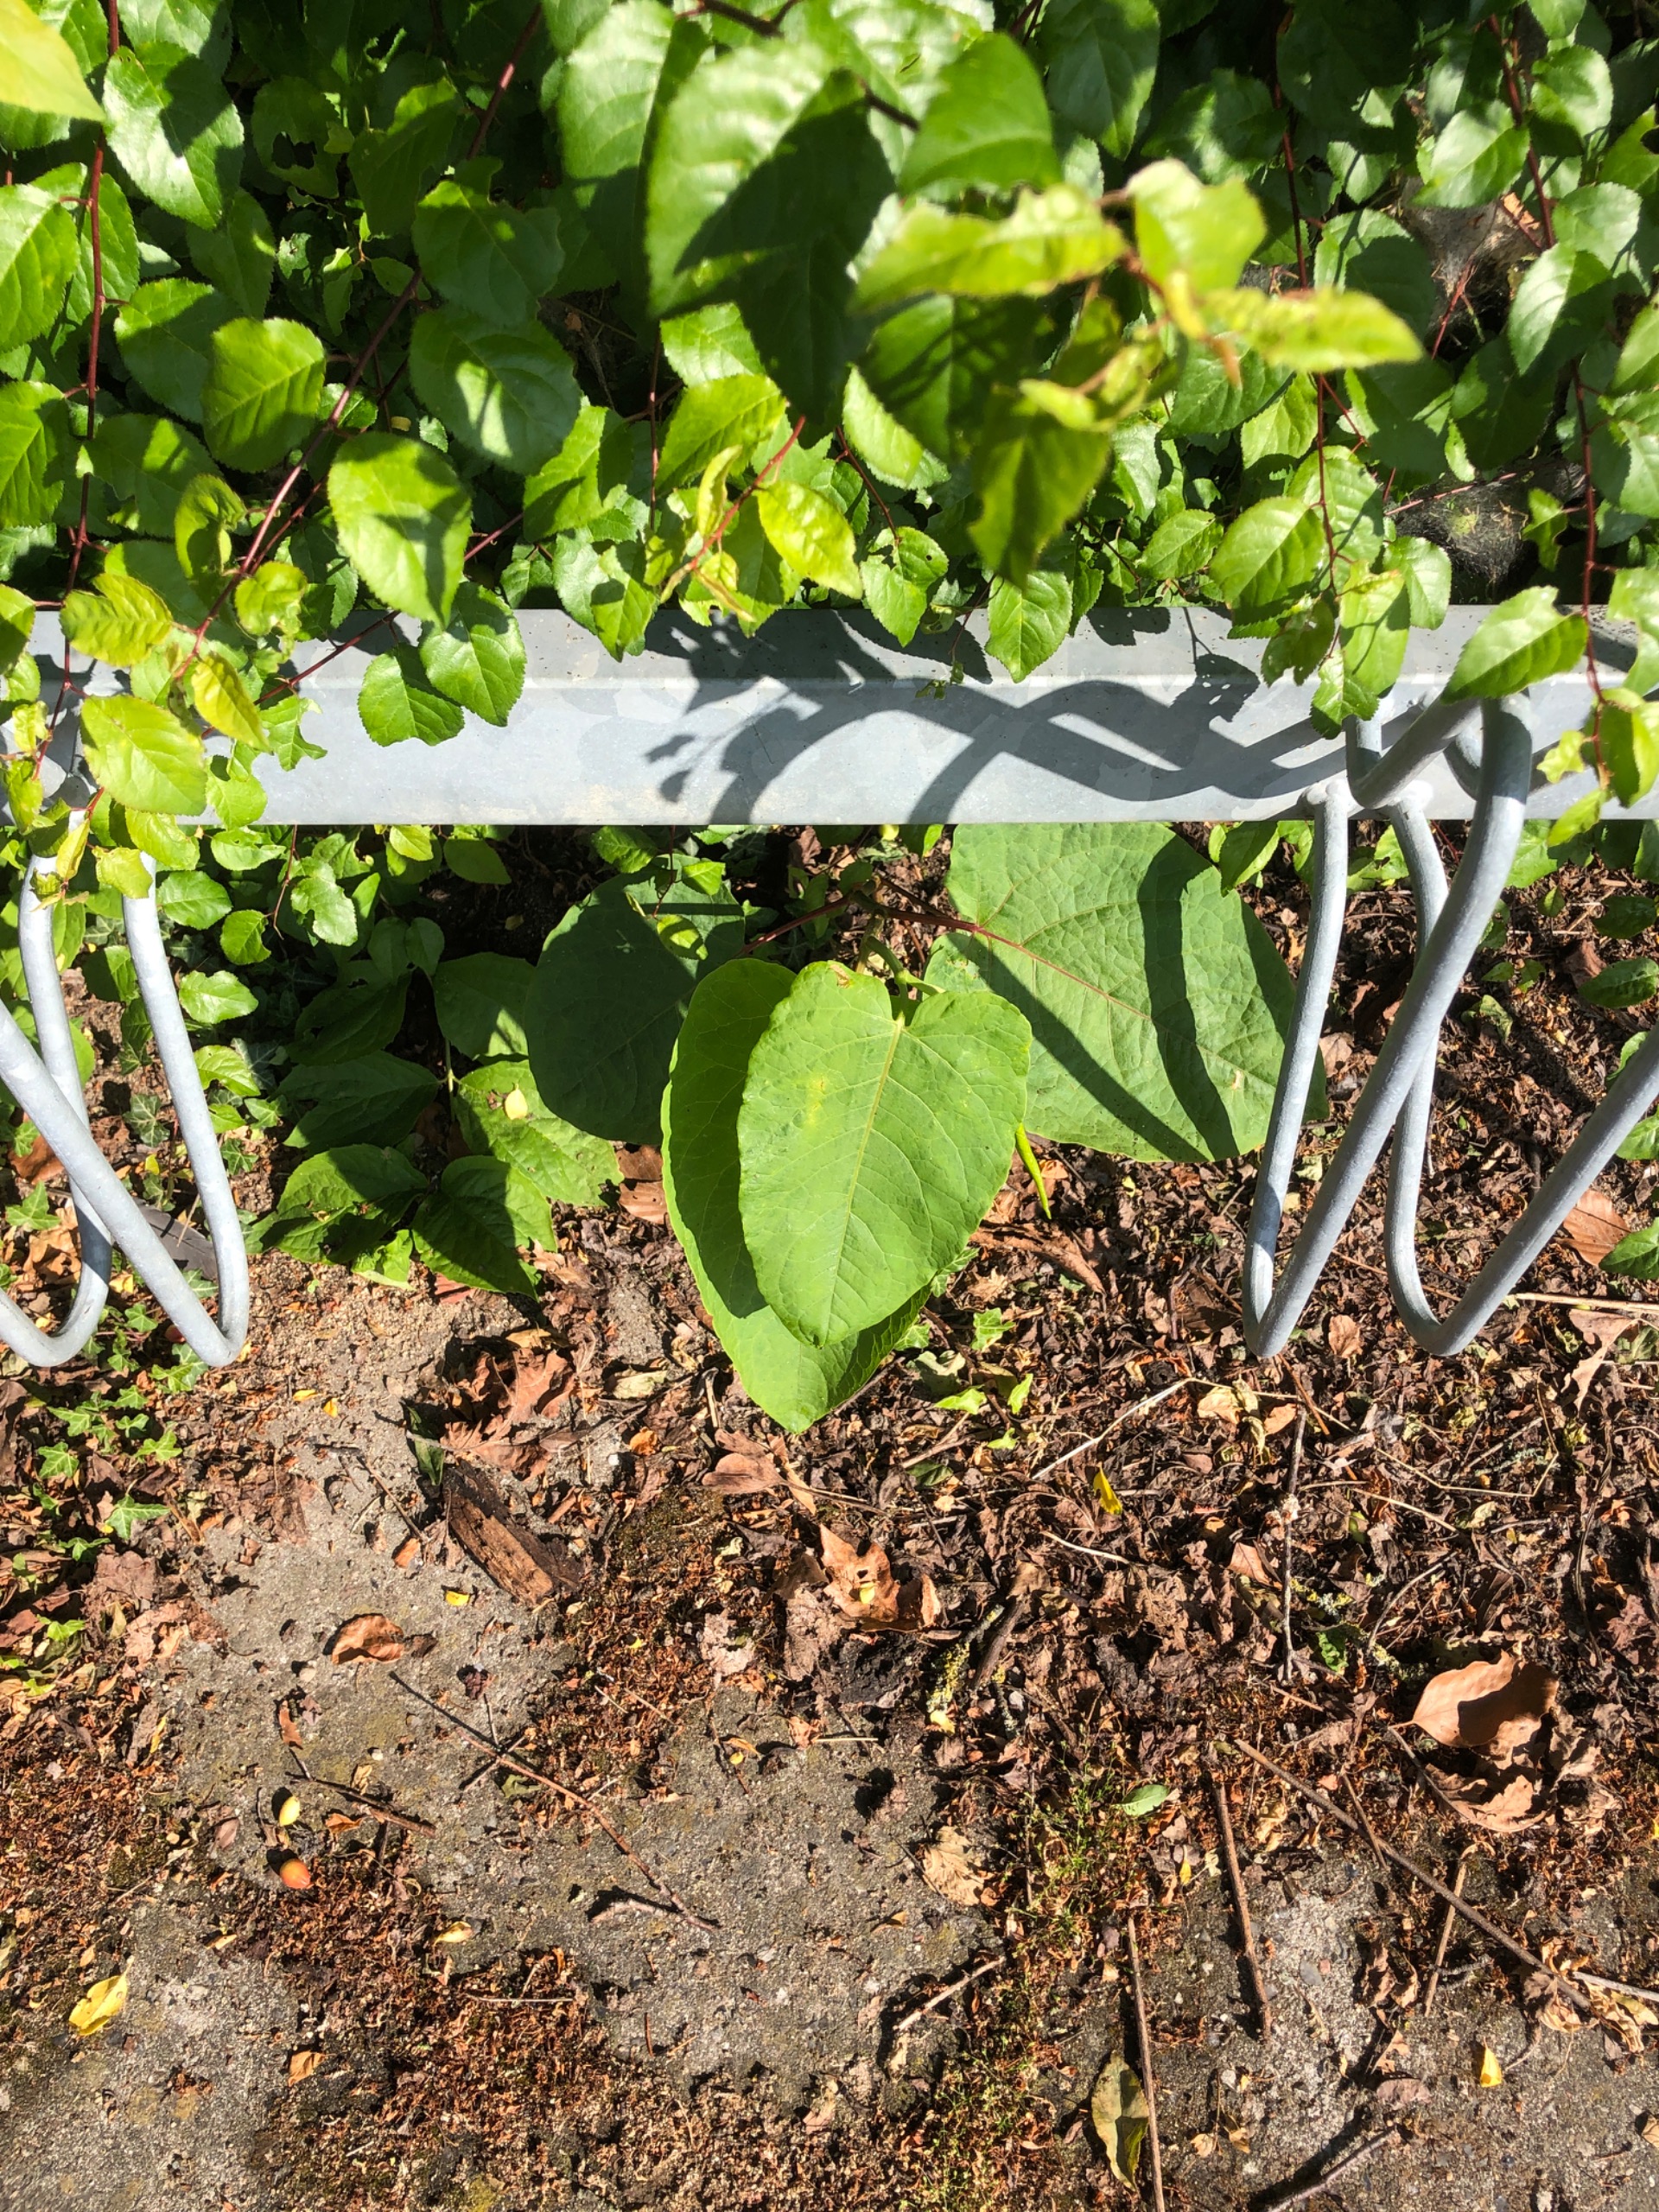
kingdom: Plantae
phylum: Tracheophyta
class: Magnoliopsida
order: Caryophyllales
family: Polygonaceae
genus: Reynoutria
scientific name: Reynoutria sachalinensis
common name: Kæmpe-pileurt
